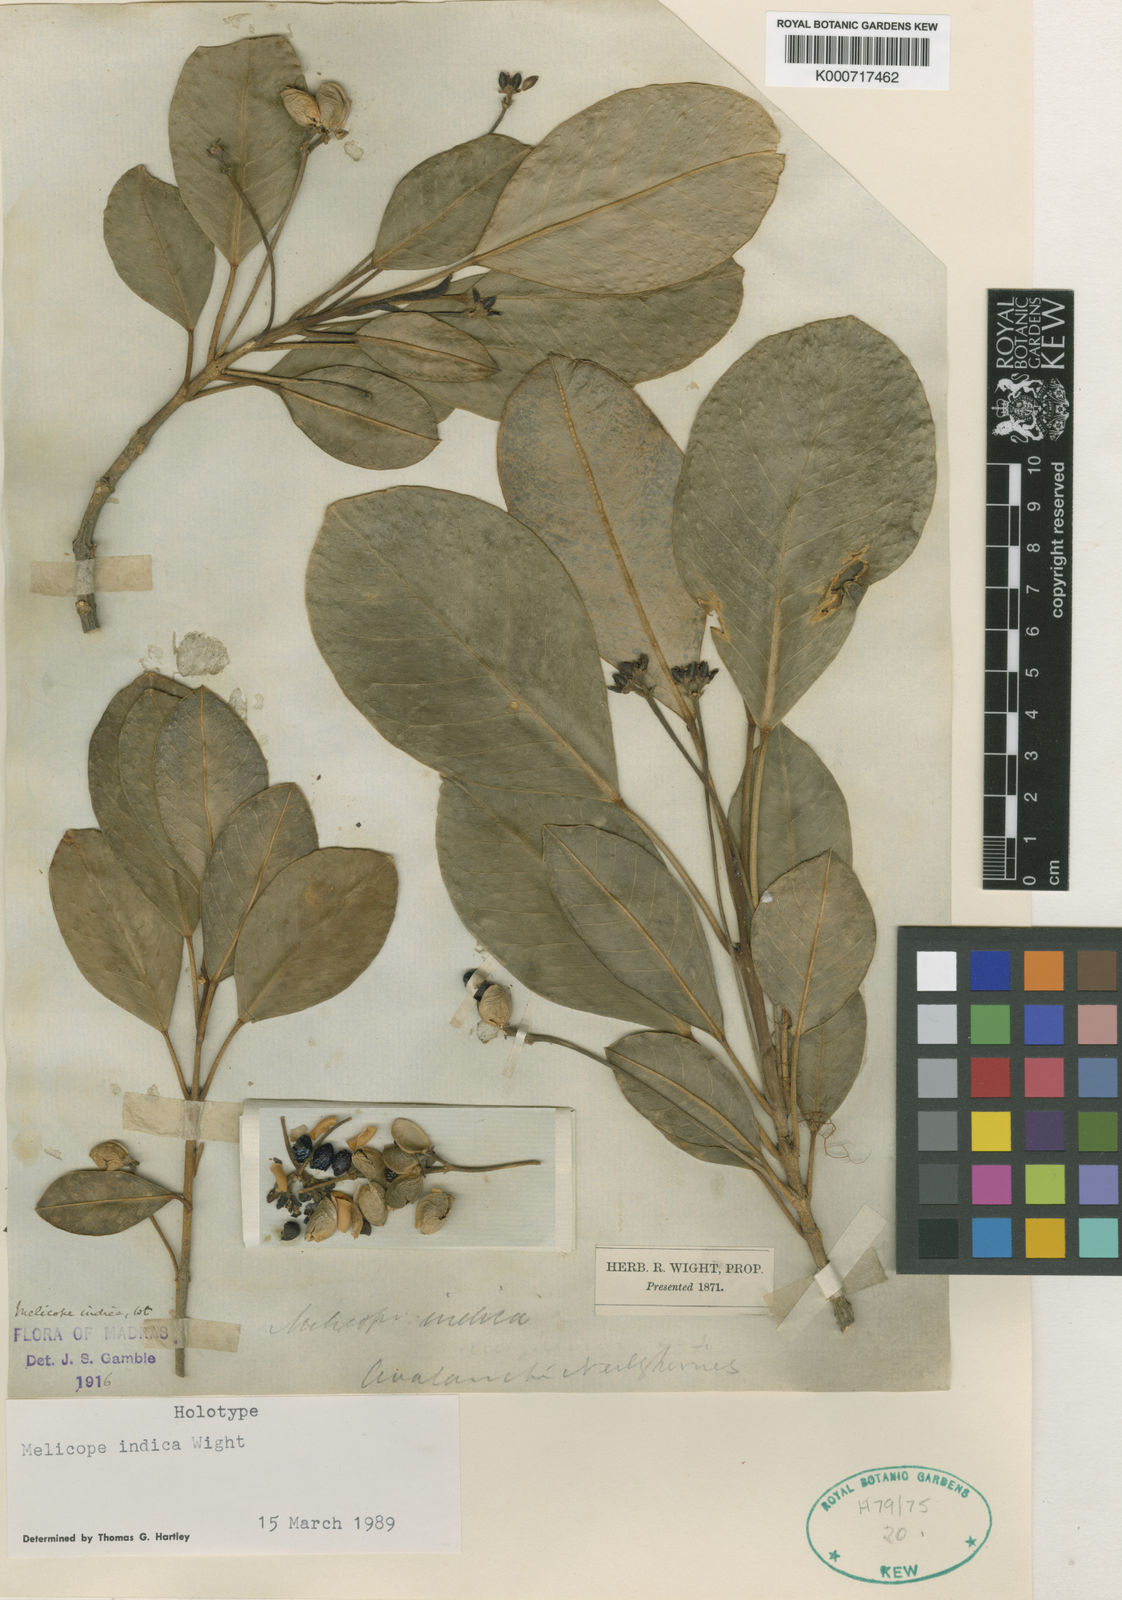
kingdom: Plantae
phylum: Tracheophyta
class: Magnoliopsida
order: Sapindales
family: Rutaceae
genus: Melicope
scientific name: Melicope indica
